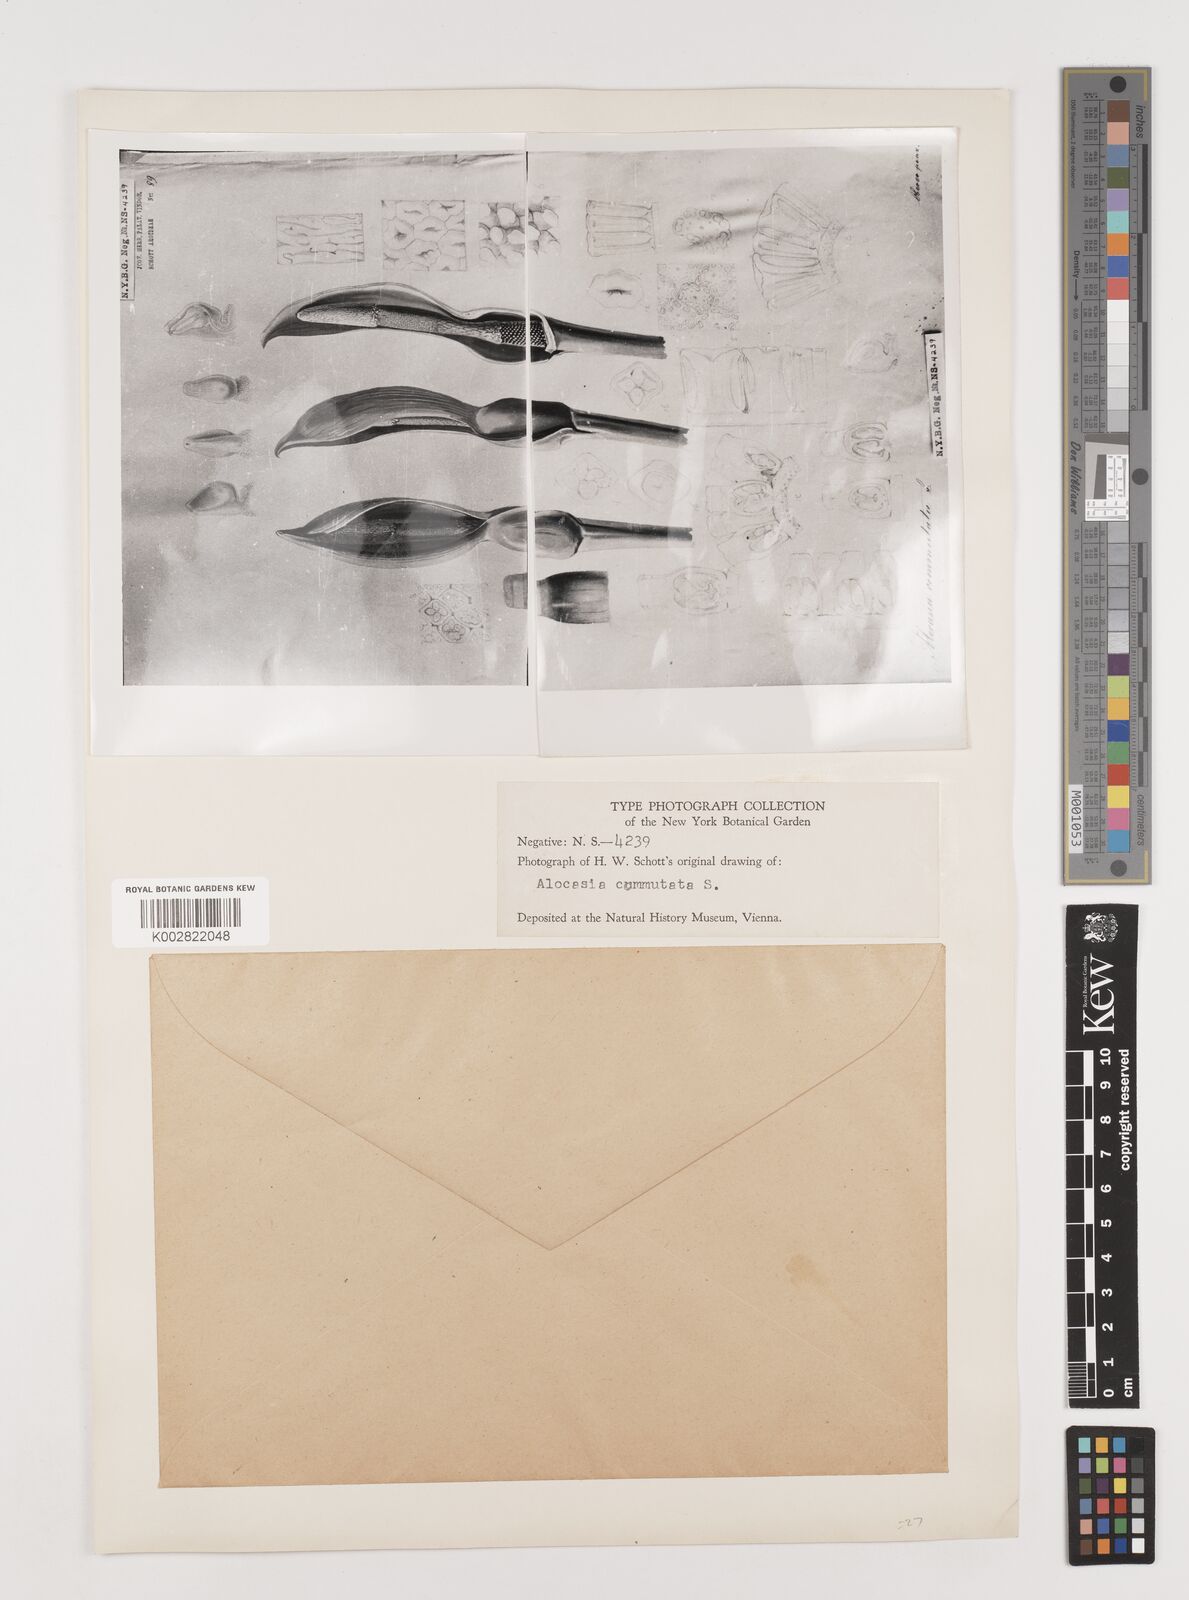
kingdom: Plantae
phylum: Tracheophyta
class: Liliopsida
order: Alismatales
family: Araceae
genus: Alocasia
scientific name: Alocasia odora
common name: Asian taro
